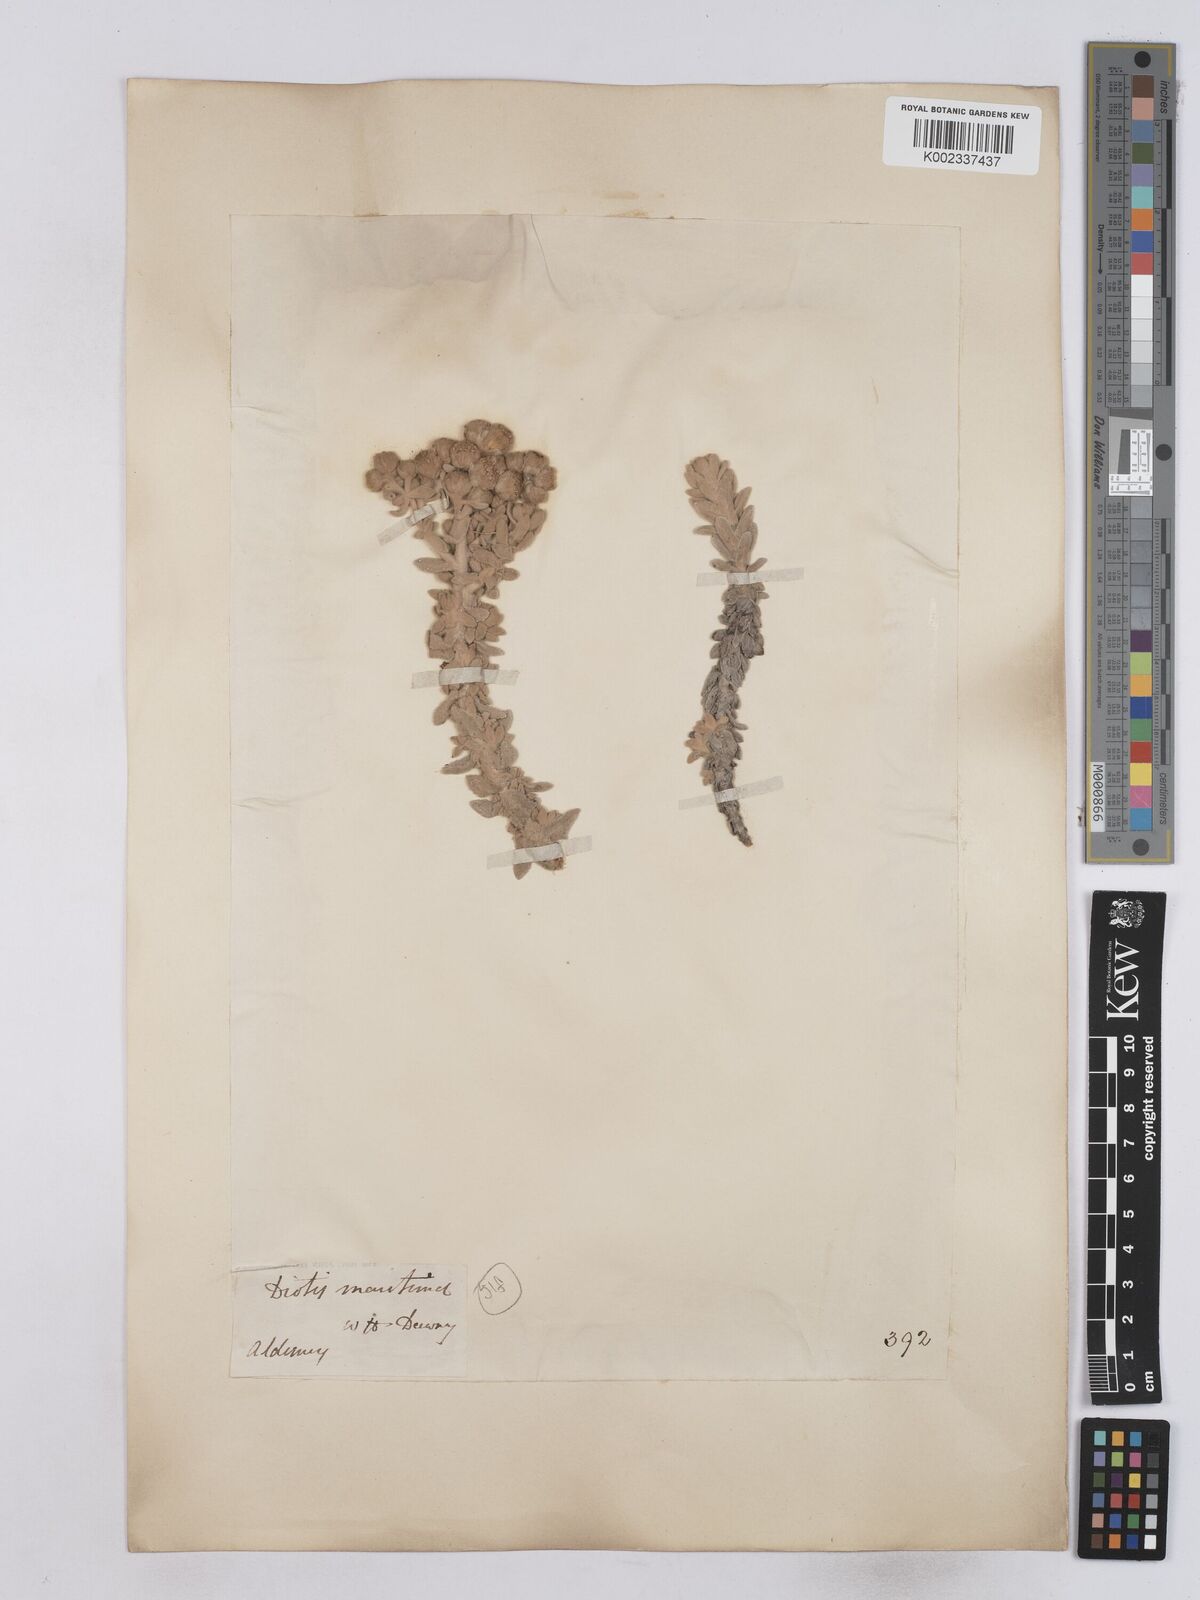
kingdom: Plantae
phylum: Tracheophyta
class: Magnoliopsida
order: Asterales
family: Asteraceae
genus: Achillea
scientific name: Achillea maritima
